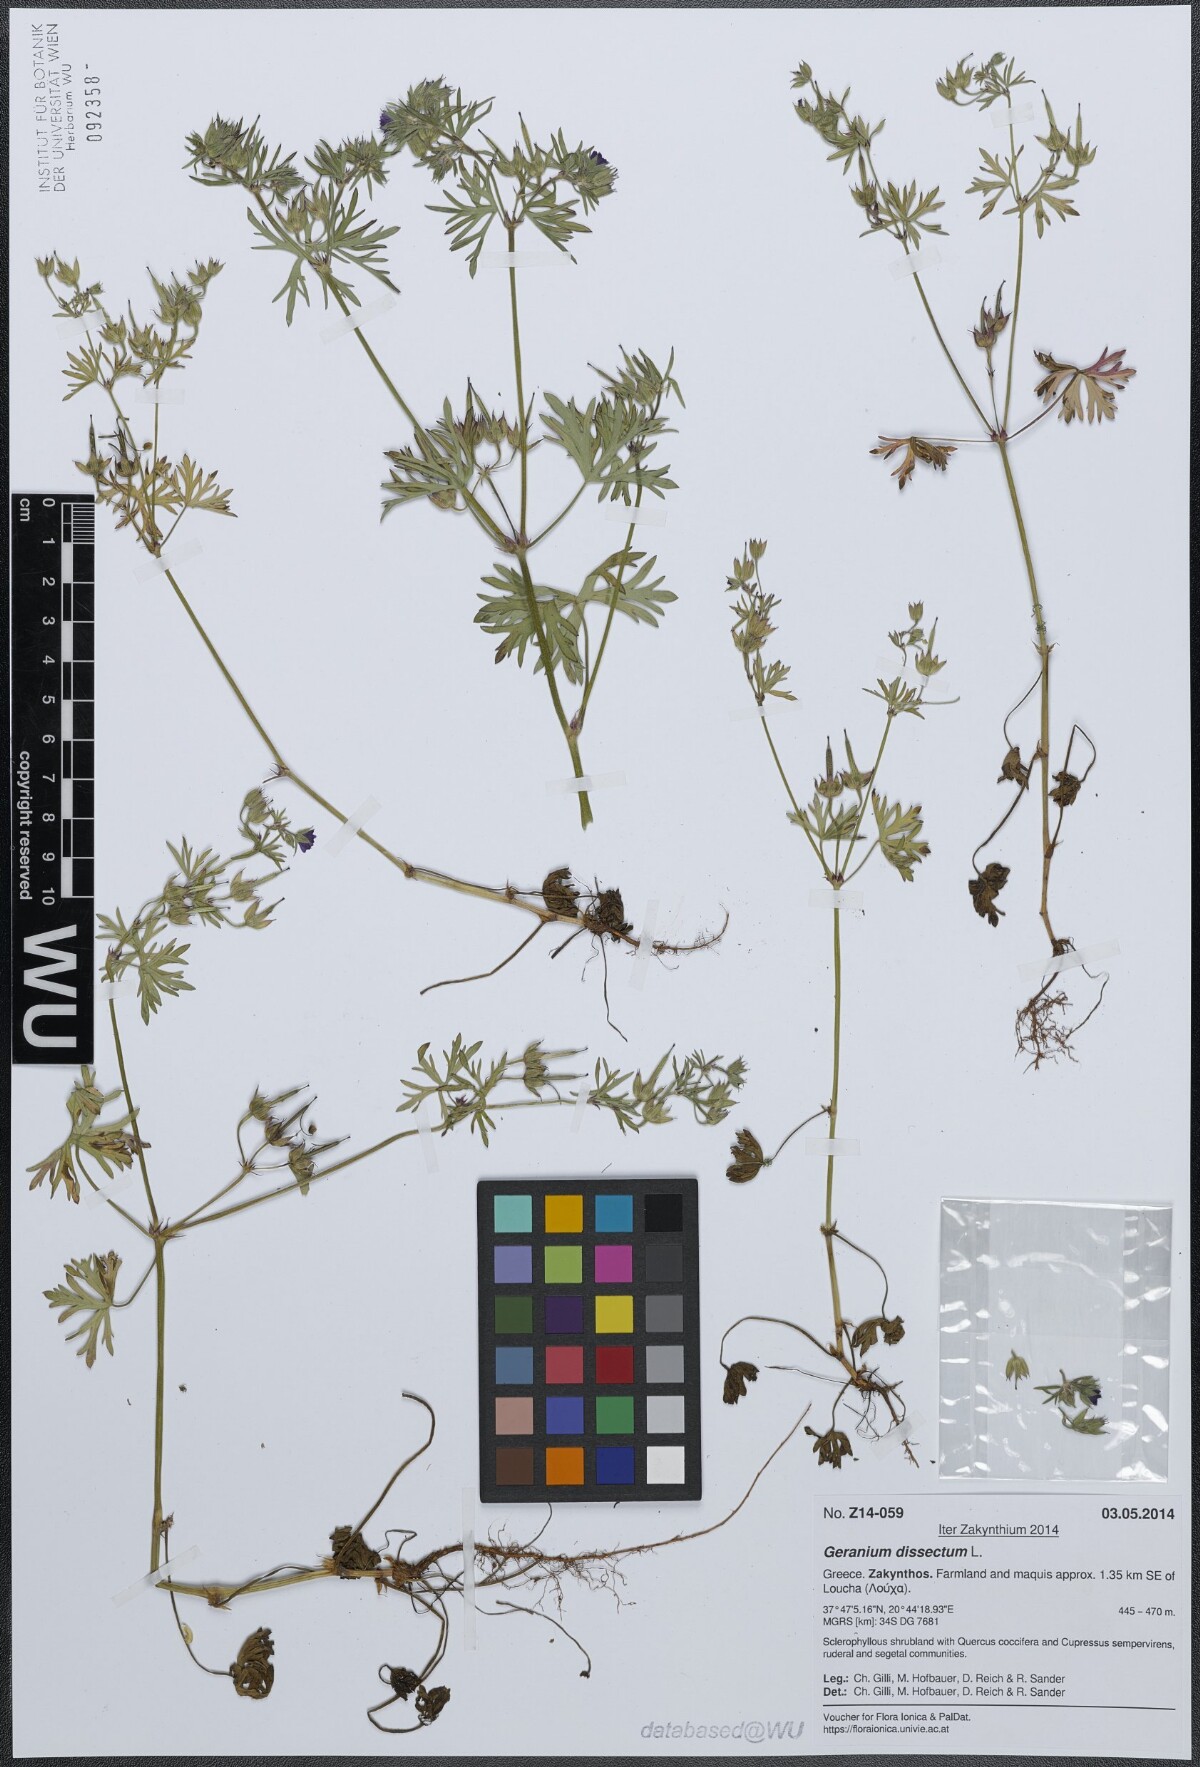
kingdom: Plantae
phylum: Tracheophyta
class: Magnoliopsida
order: Geraniales
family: Geraniaceae
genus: Geranium
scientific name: Geranium dissectum
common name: Cut-leaved crane's-bill
